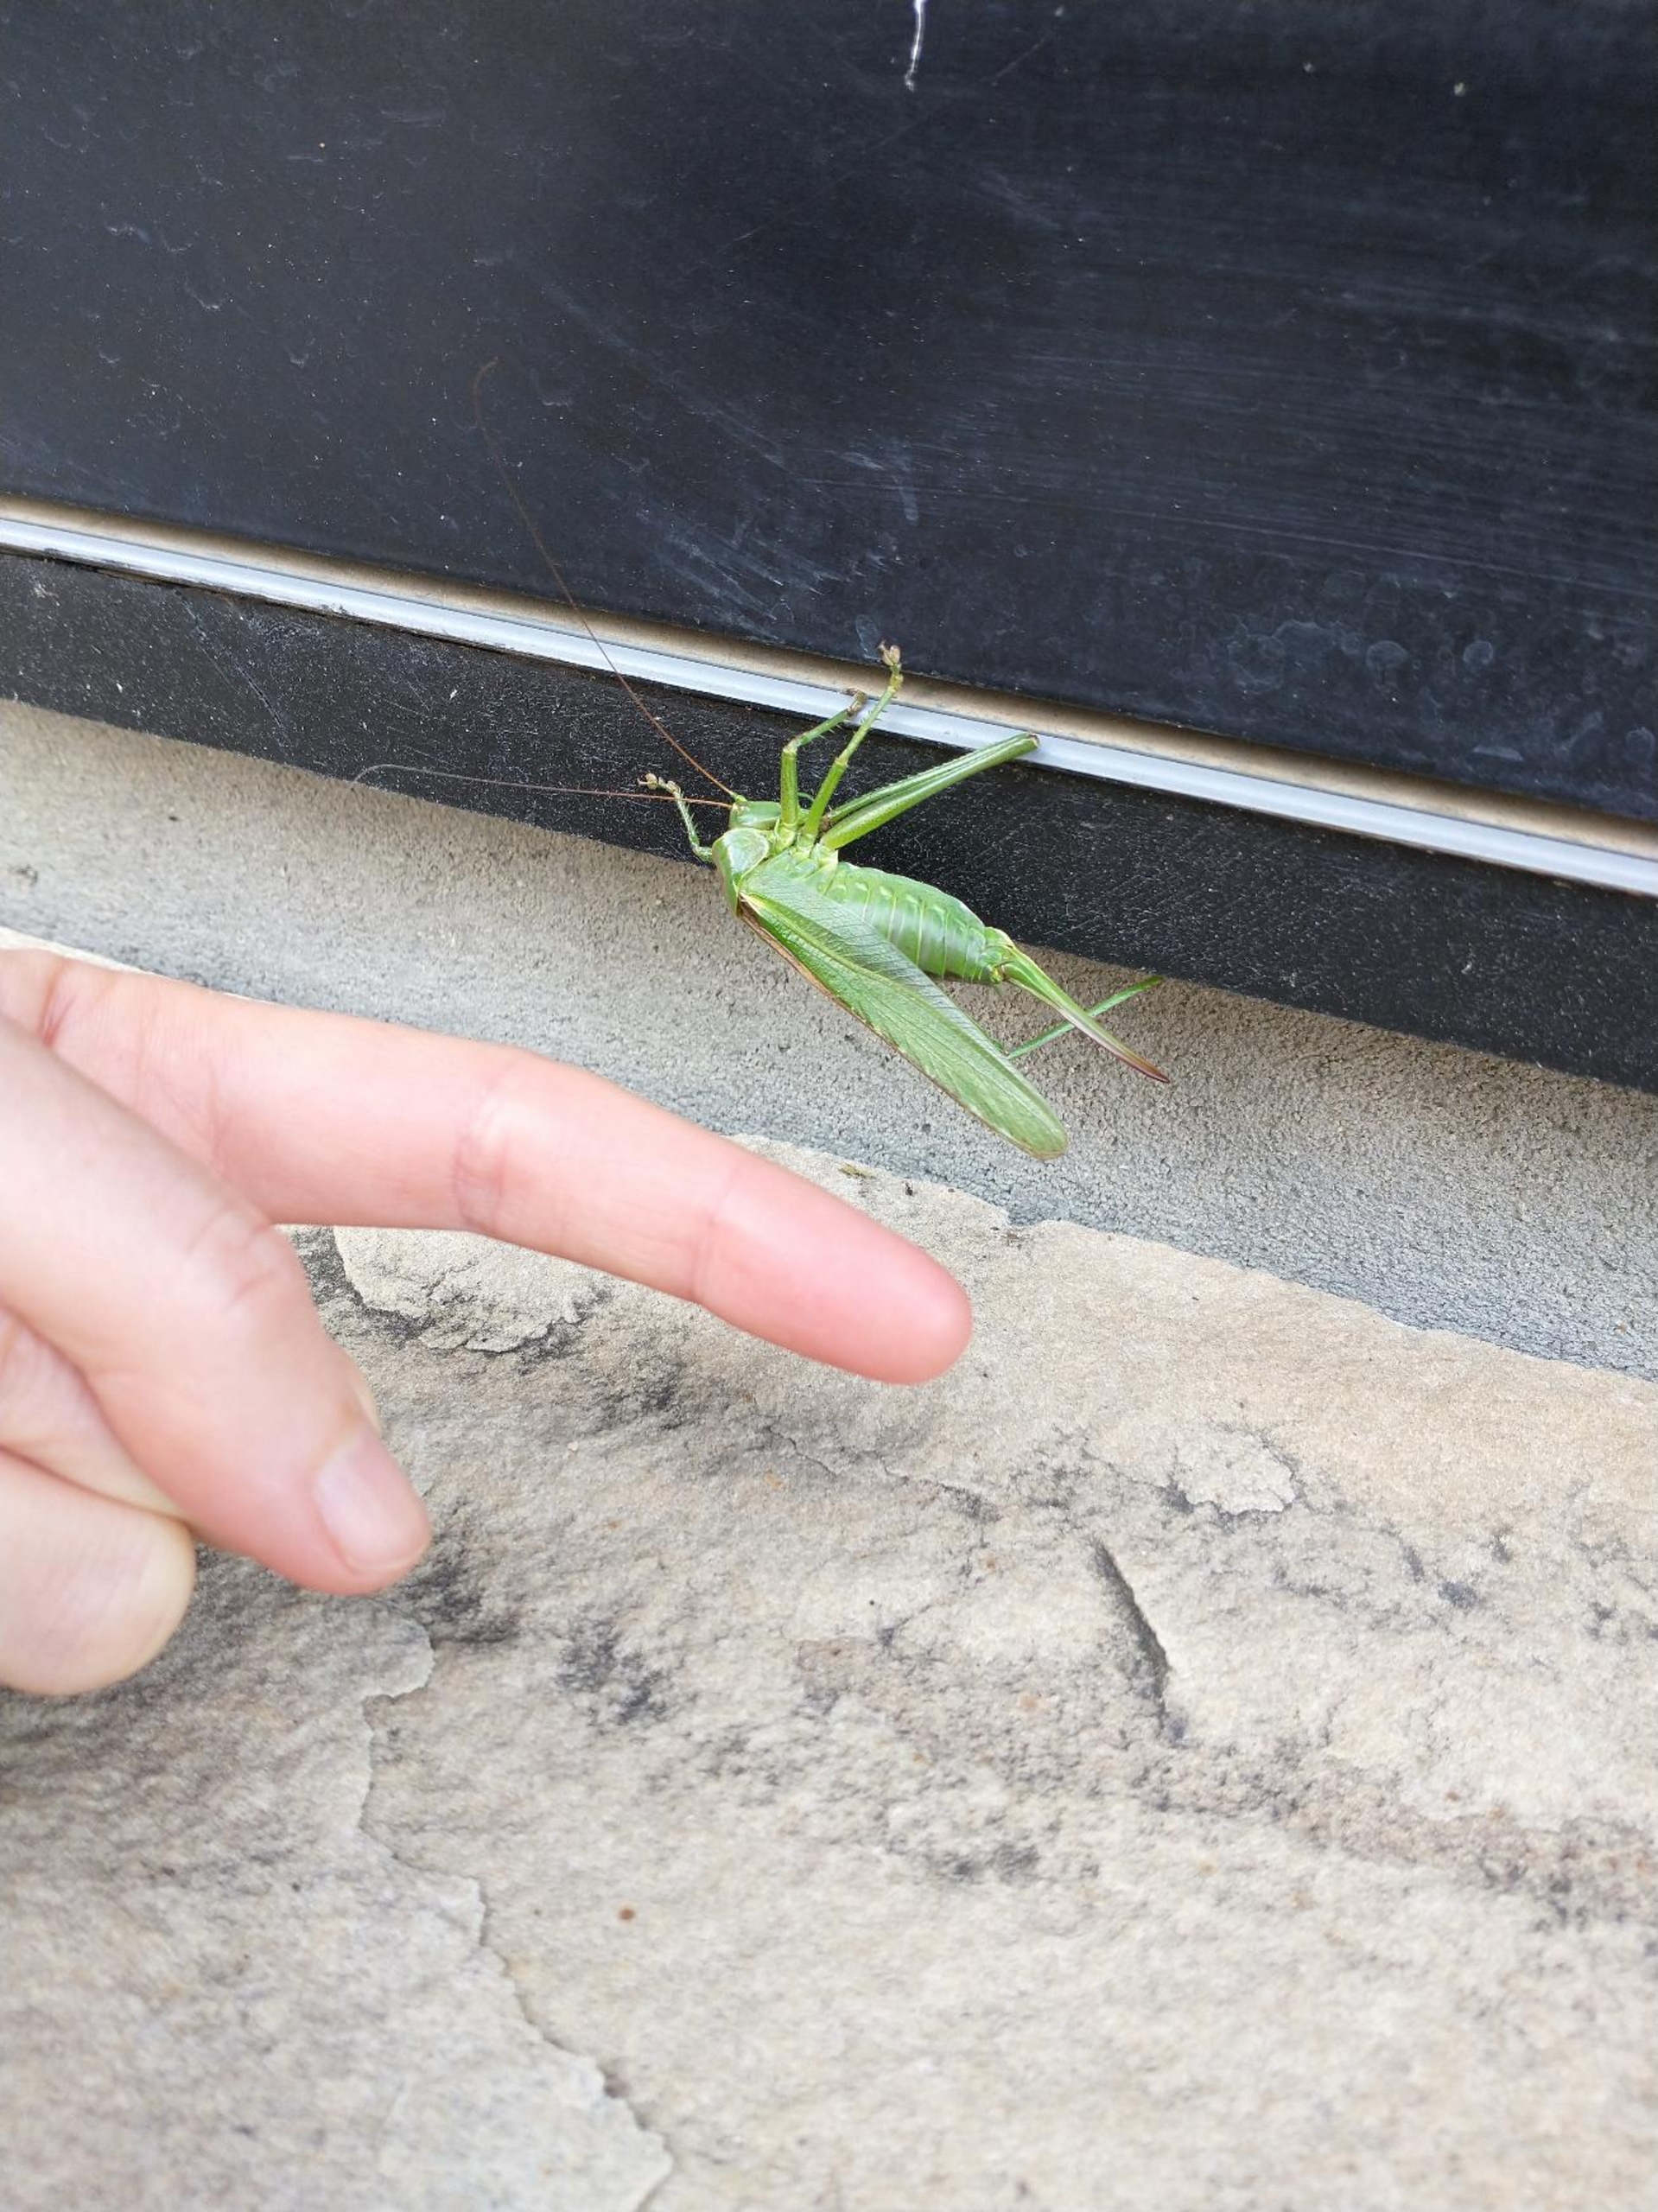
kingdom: Animalia
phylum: Arthropoda
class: Insecta
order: Orthoptera
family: Tettigoniidae
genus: Tettigonia
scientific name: Tettigonia viridissima
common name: Stor grøn løvgræshoppe
